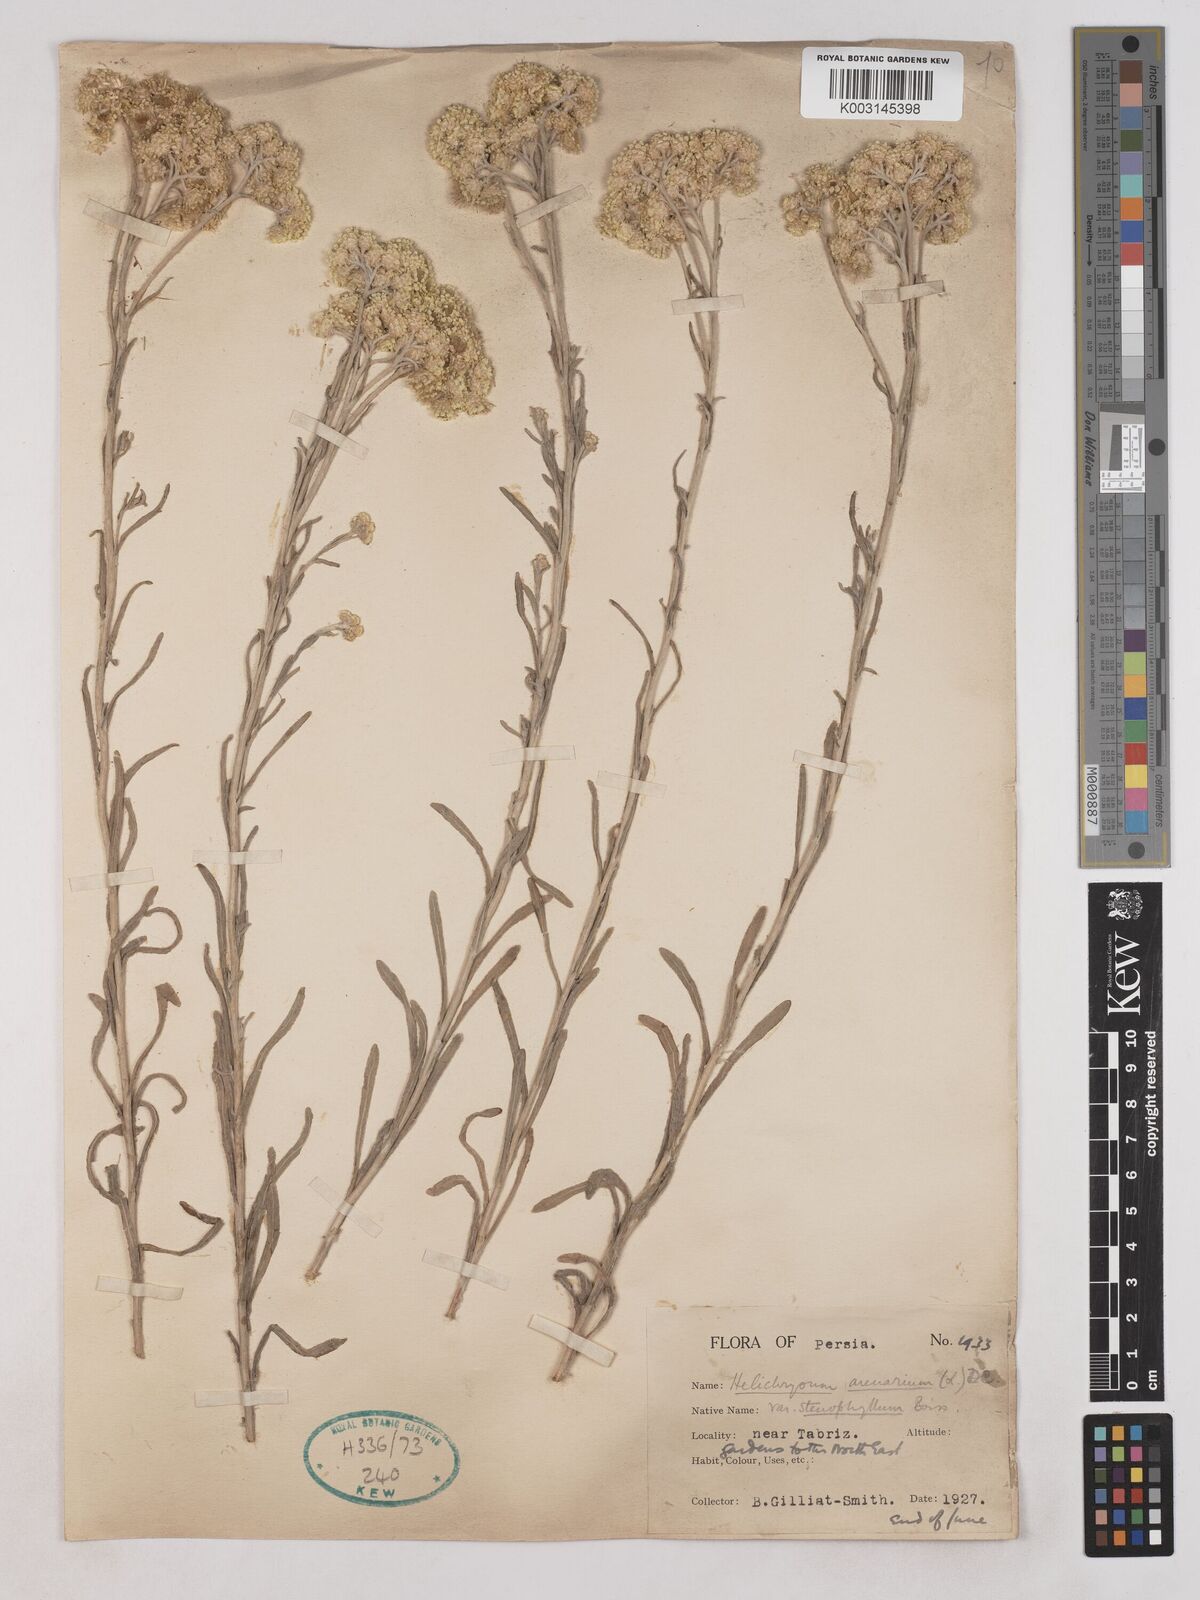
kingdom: Plantae
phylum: Tracheophyta
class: Magnoliopsida
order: Asterales
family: Asteraceae
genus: Helichrysum
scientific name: Helichrysum arenarium
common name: Strawflower
